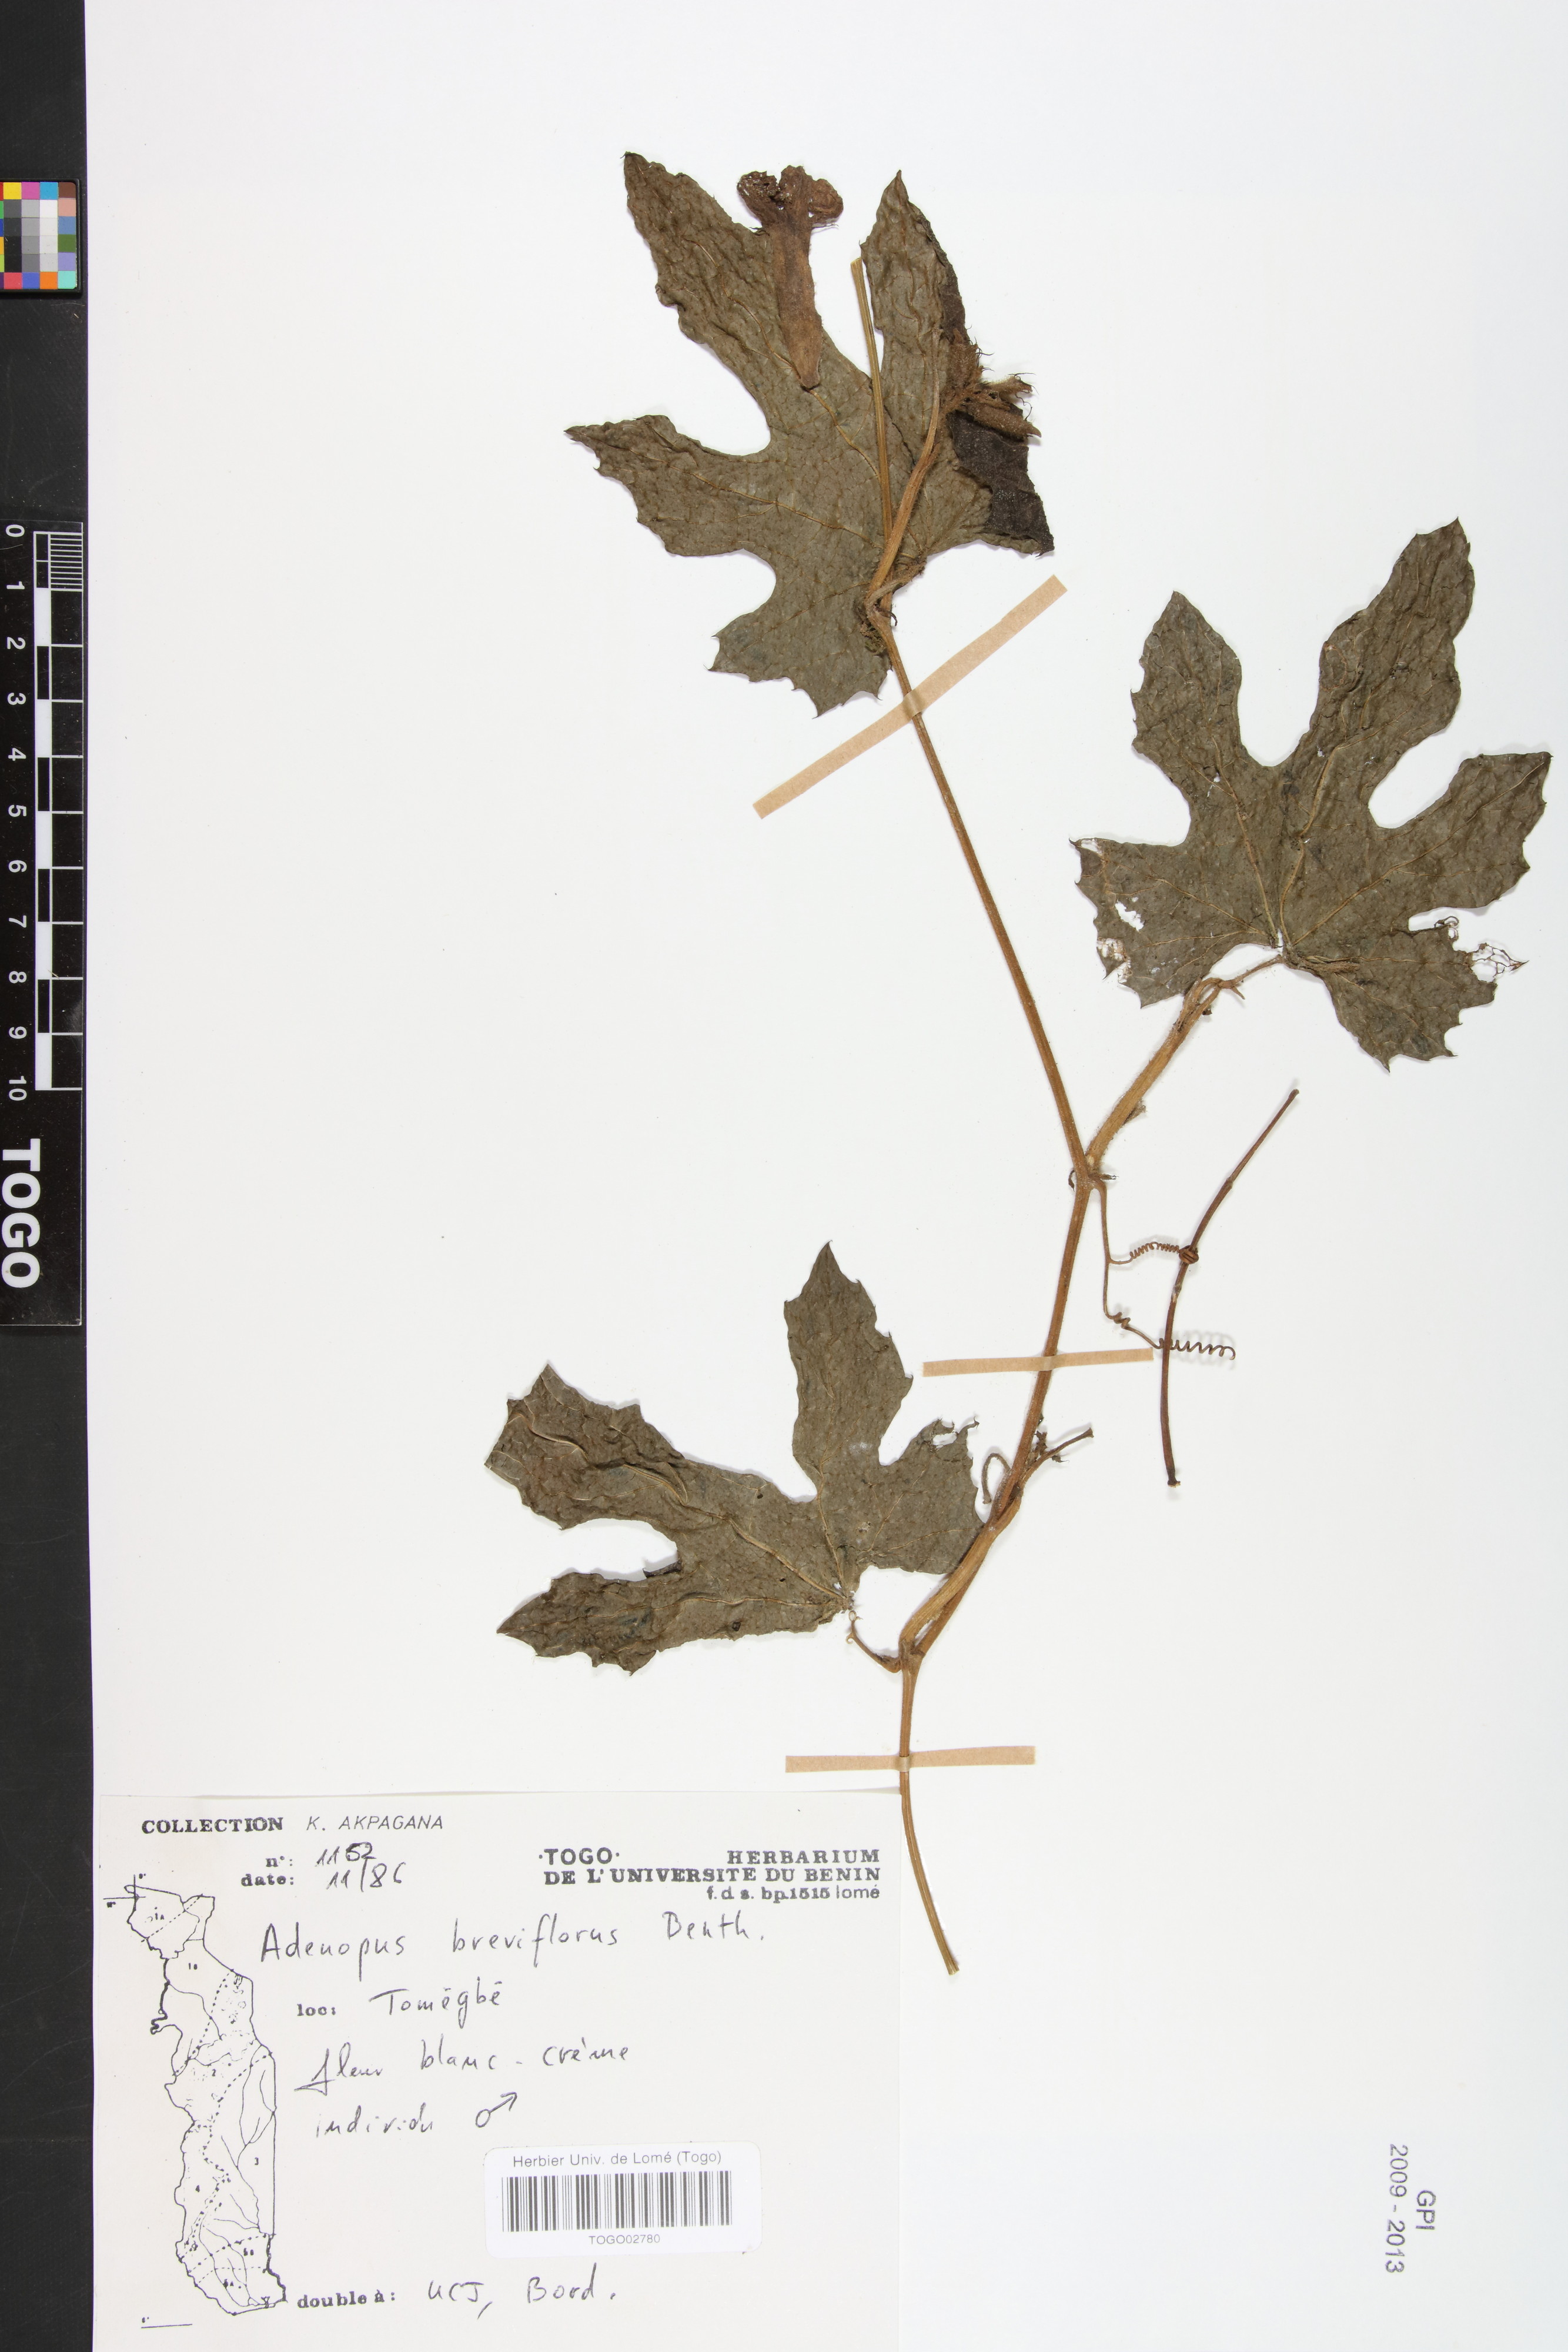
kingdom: Plantae
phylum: Tracheophyta
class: Magnoliopsida
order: Cucurbitales
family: Cucurbitaceae
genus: Lagenaria
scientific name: Lagenaria breviflora
